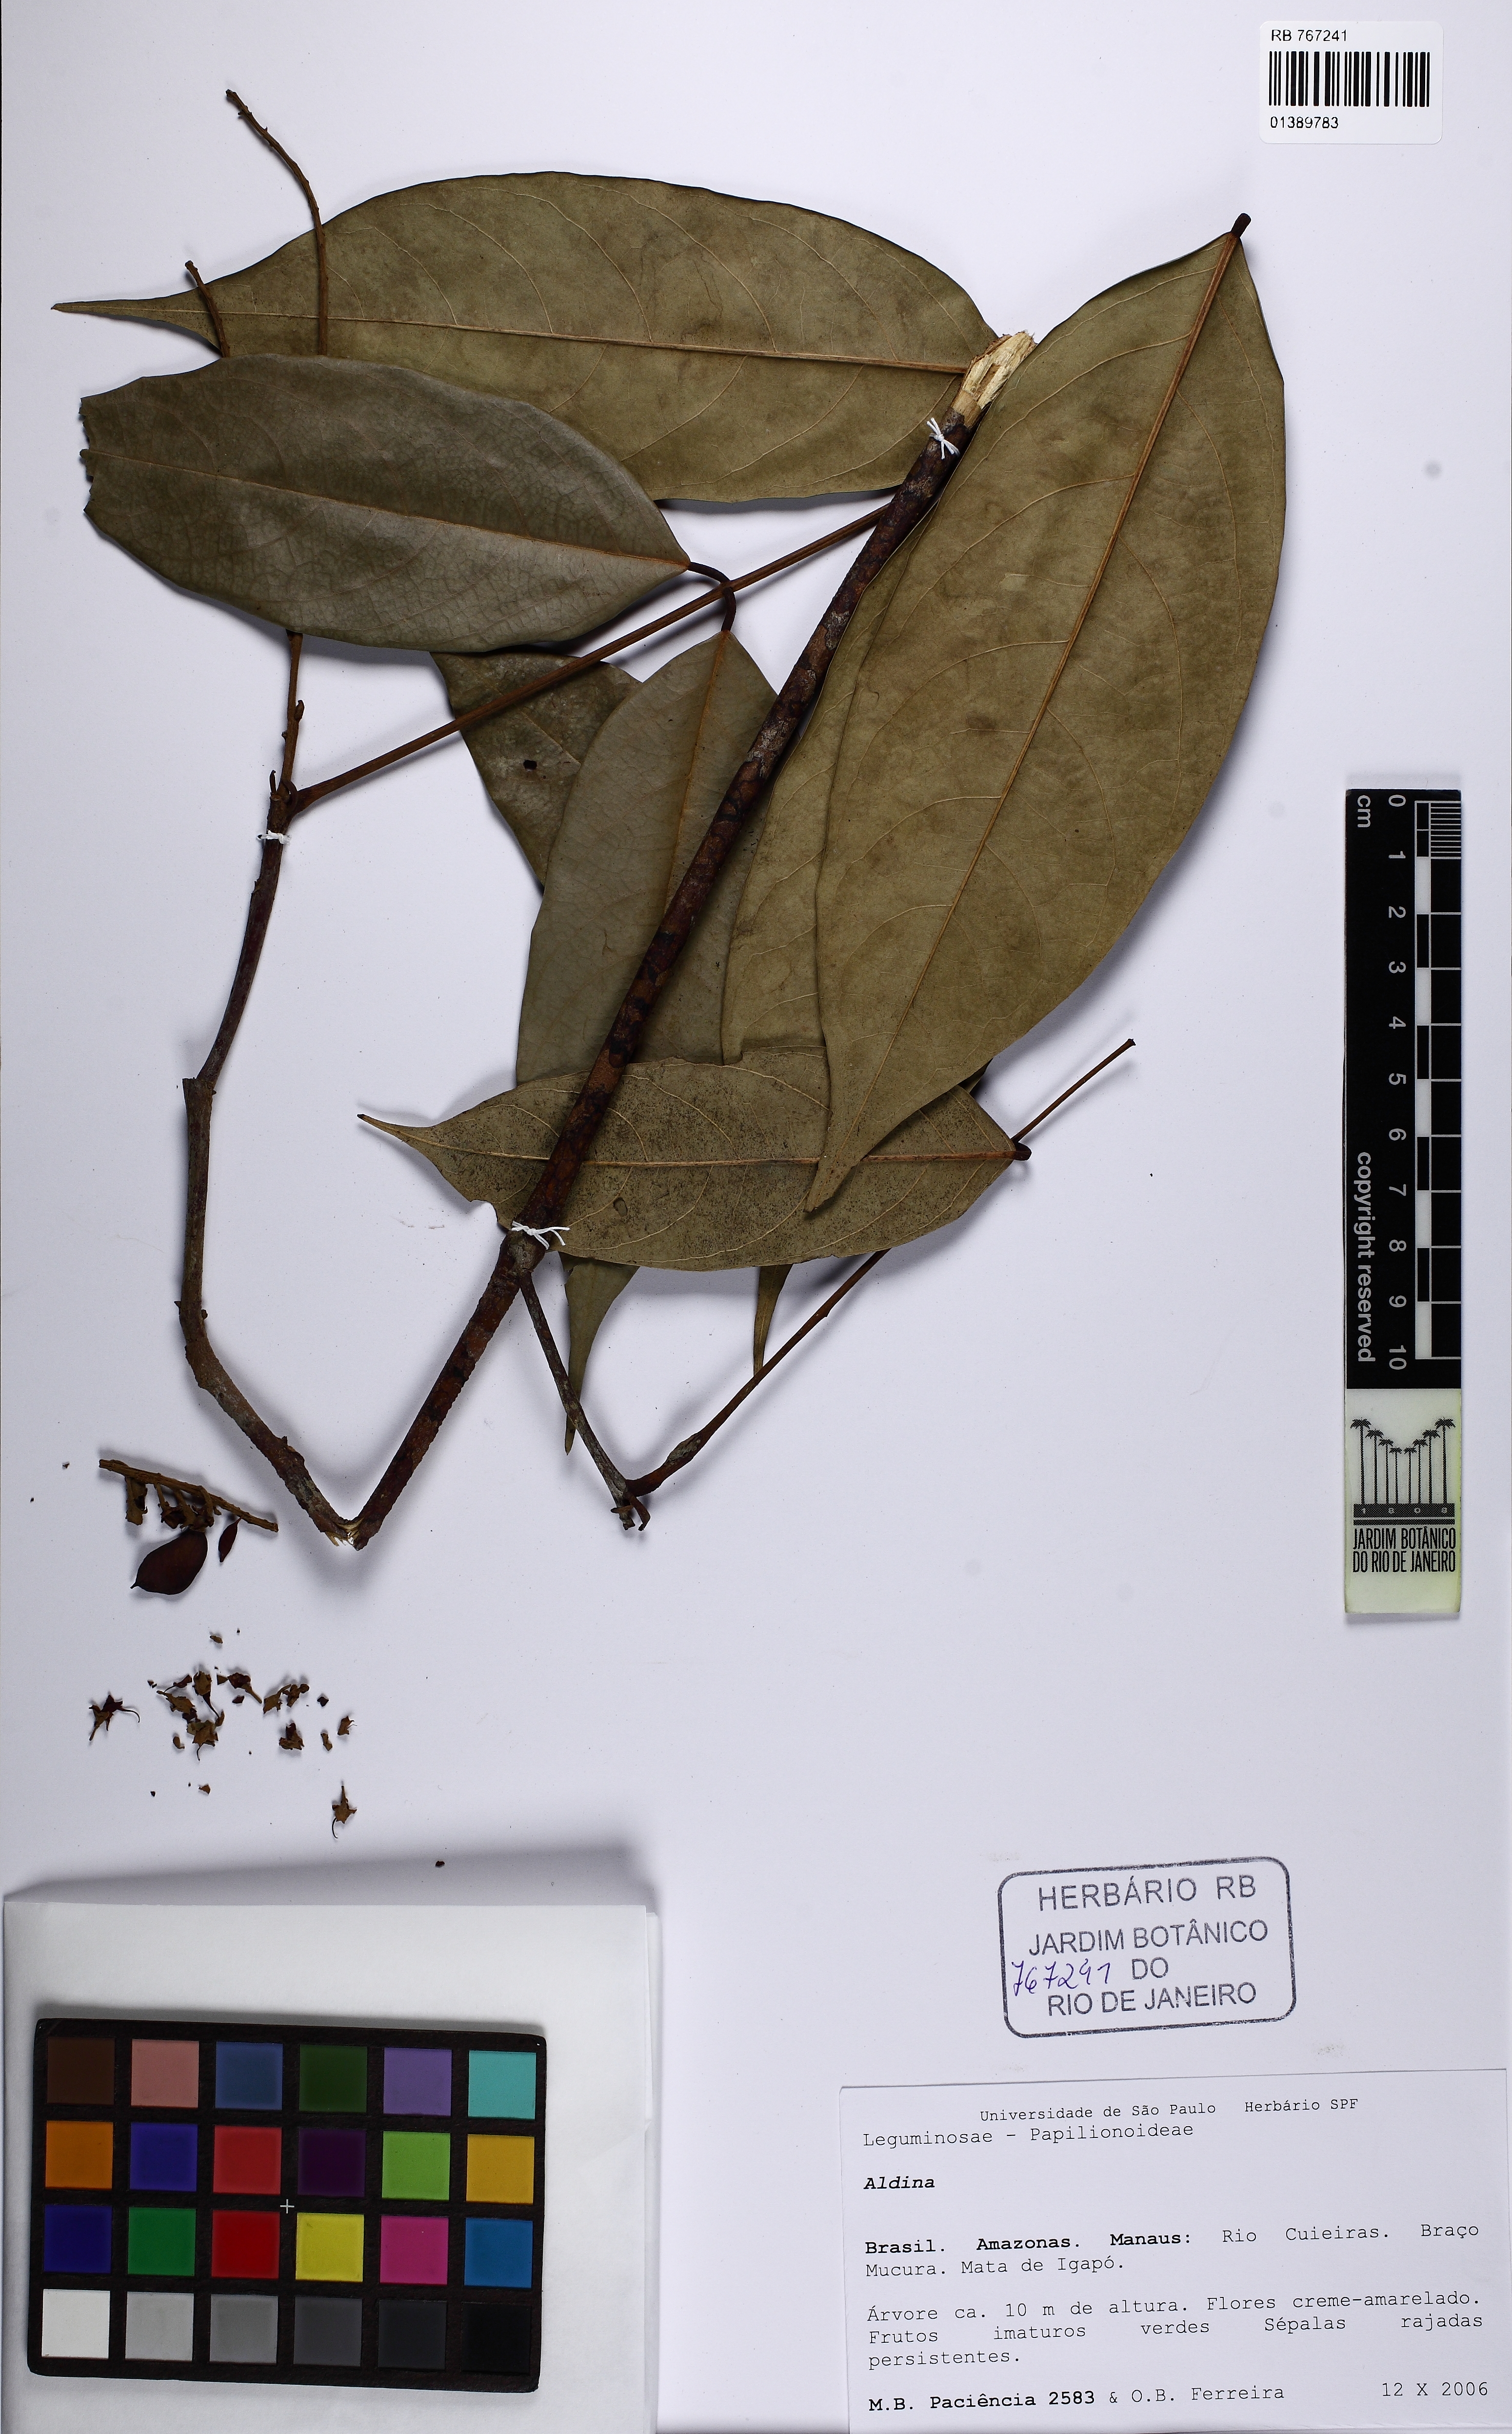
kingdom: Plantae
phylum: Tracheophyta
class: Magnoliopsida
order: Fabales
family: Fabaceae
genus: Aldina
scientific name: Aldina
